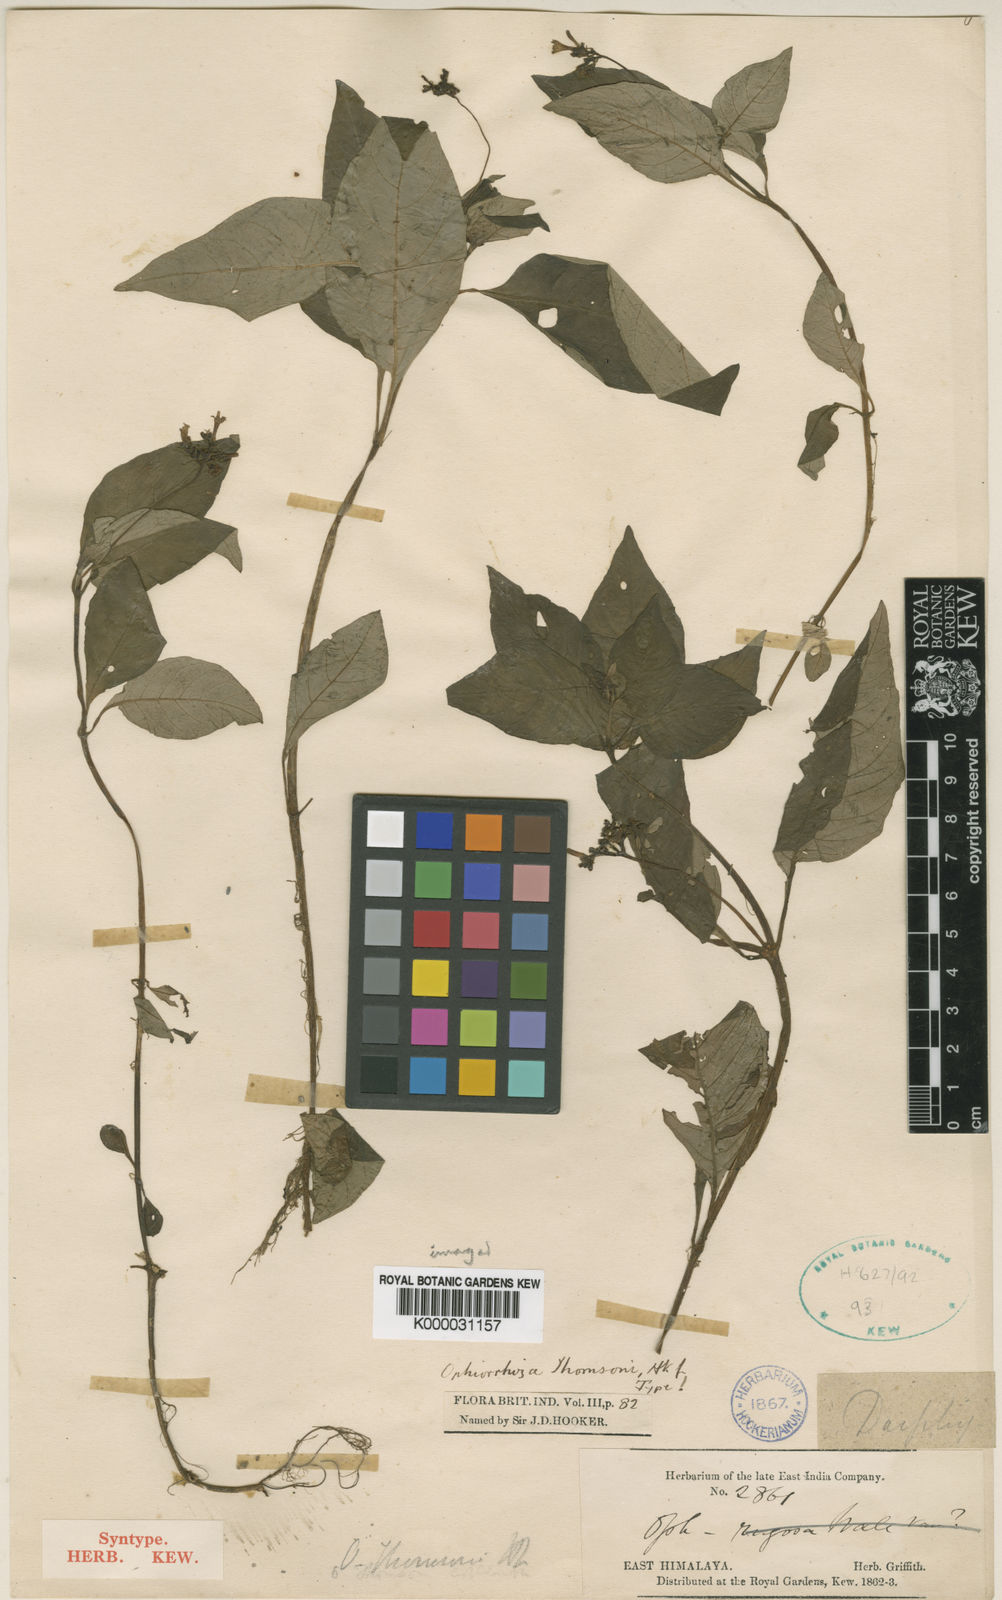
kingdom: Plantae
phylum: Tracheophyta
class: Magnoliopsida
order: Gentianales
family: Rubiaceae
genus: Ophiorrhiza
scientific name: Ophiorrhiza
